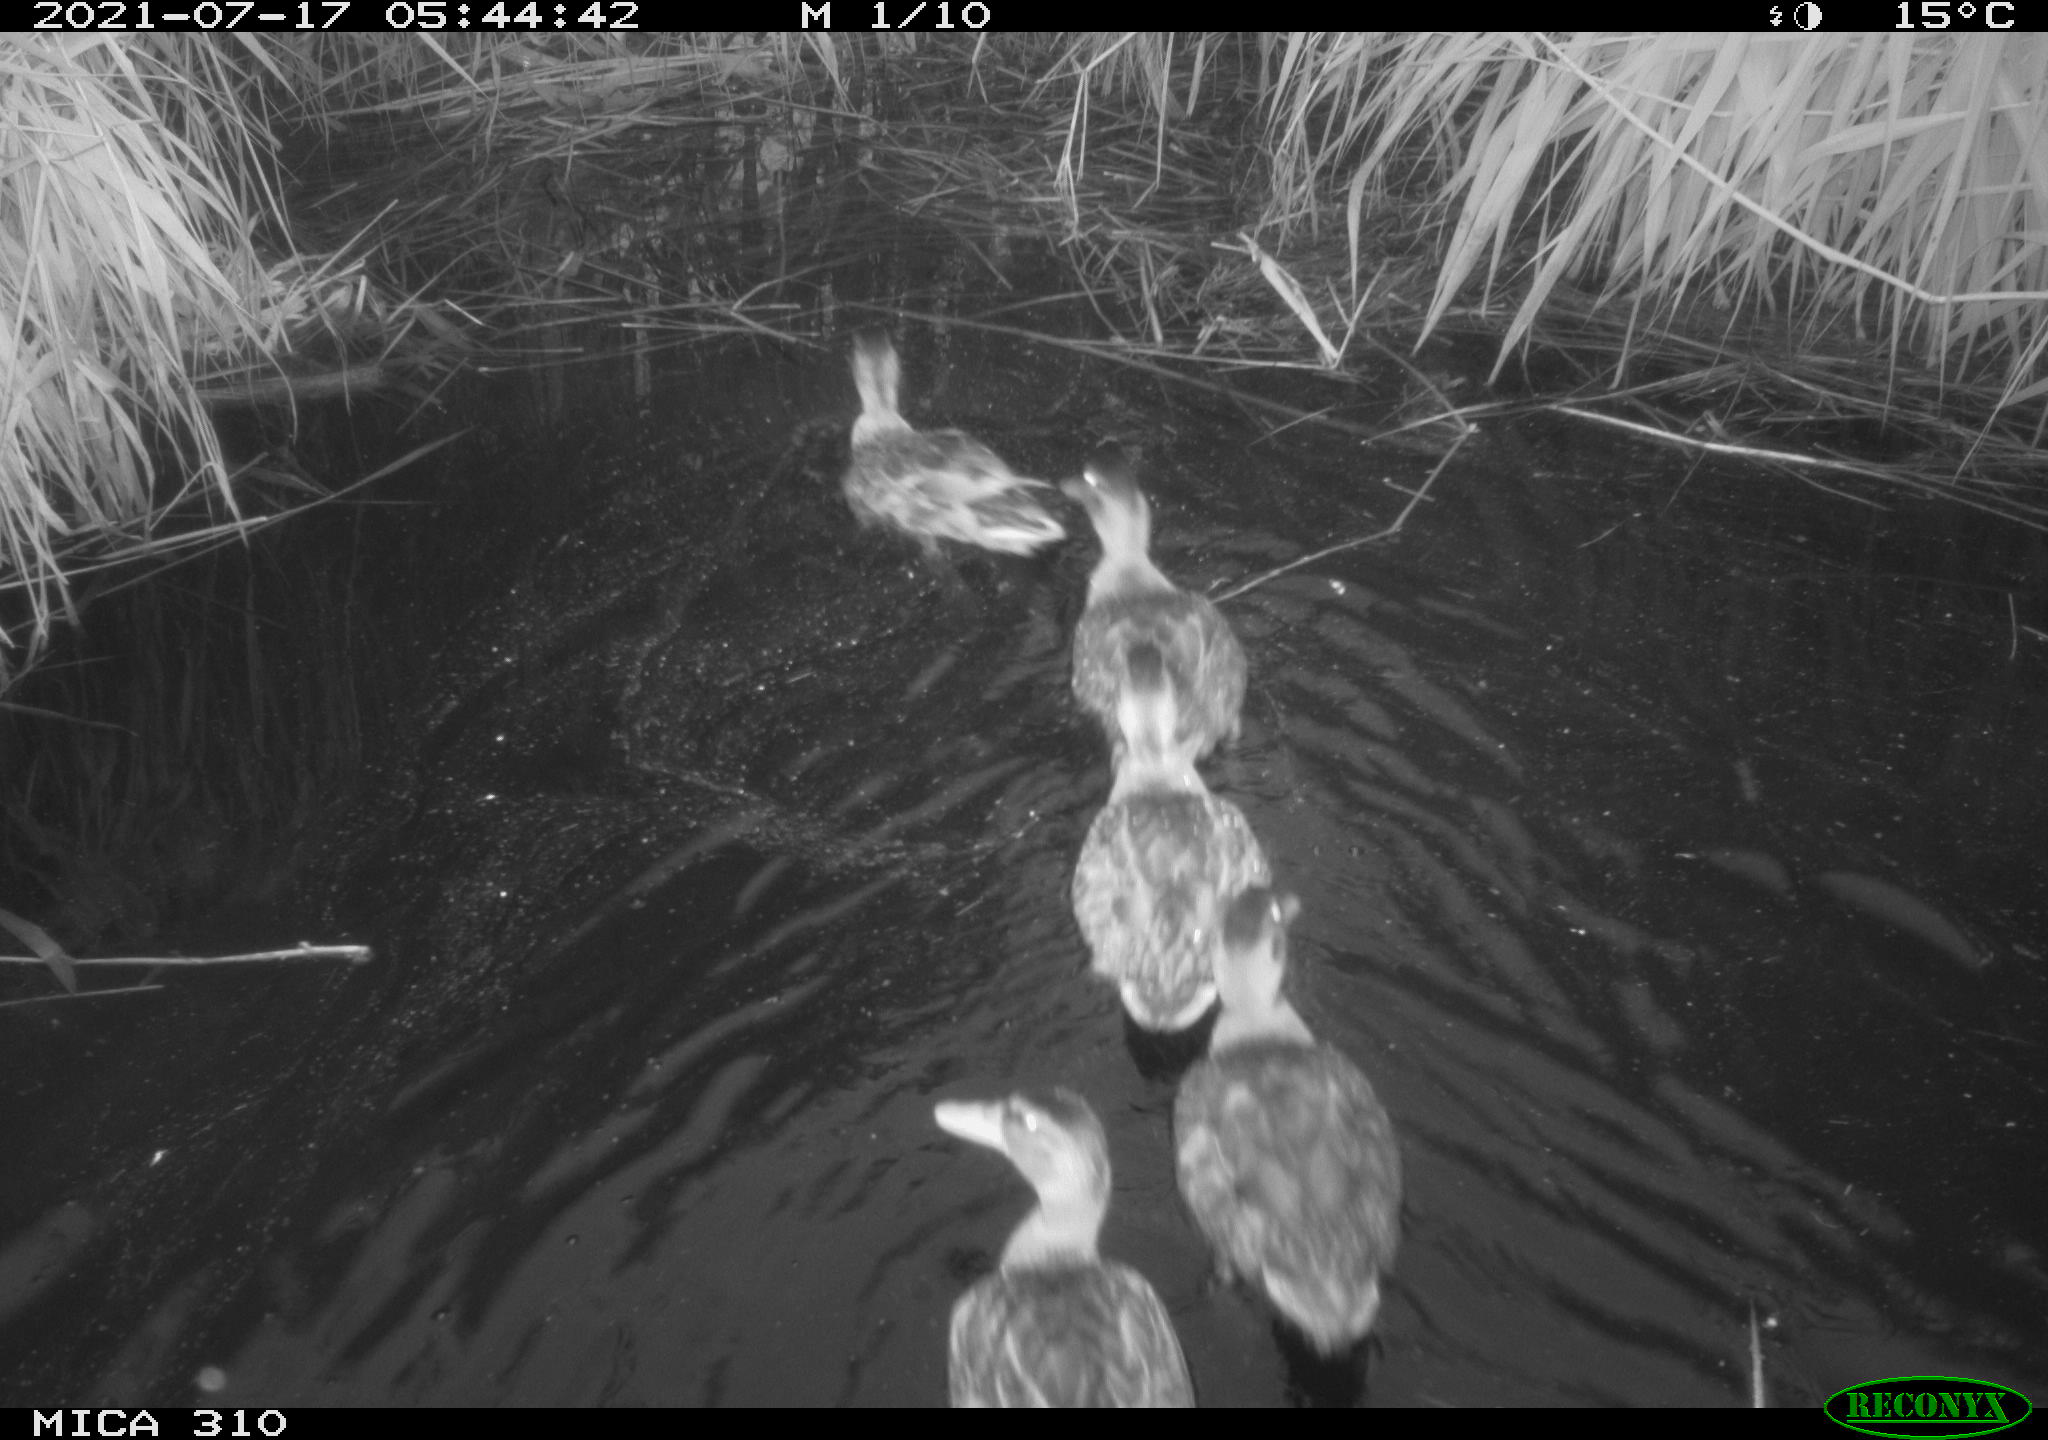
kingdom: Animalia
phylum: Chordata
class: Aves
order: Anseriformes
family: Anatidae
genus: Anas
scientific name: Anas platyrhynchos
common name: Mallard
